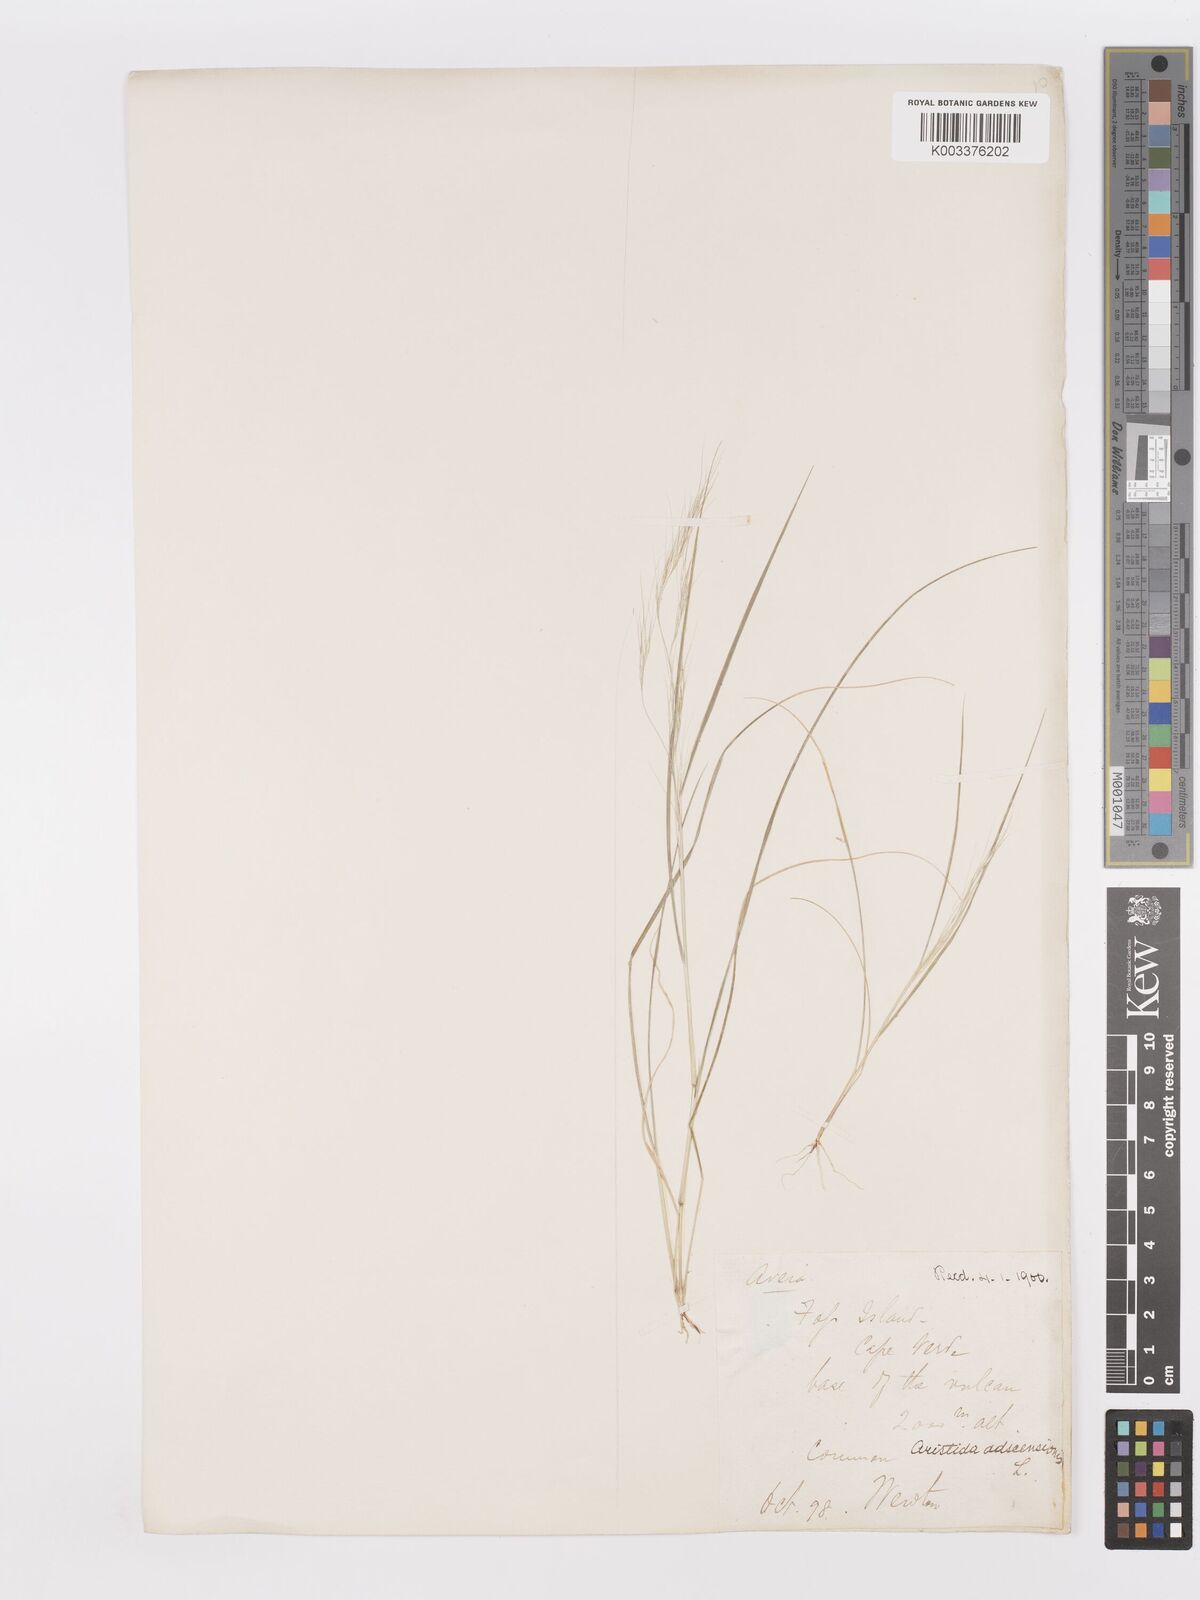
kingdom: Plantae
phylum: Tracheophyta
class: Liliopsida
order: Poales
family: Poaceae
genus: Aristida
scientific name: Aristida adscensionis
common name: Sixweeks threeawn
